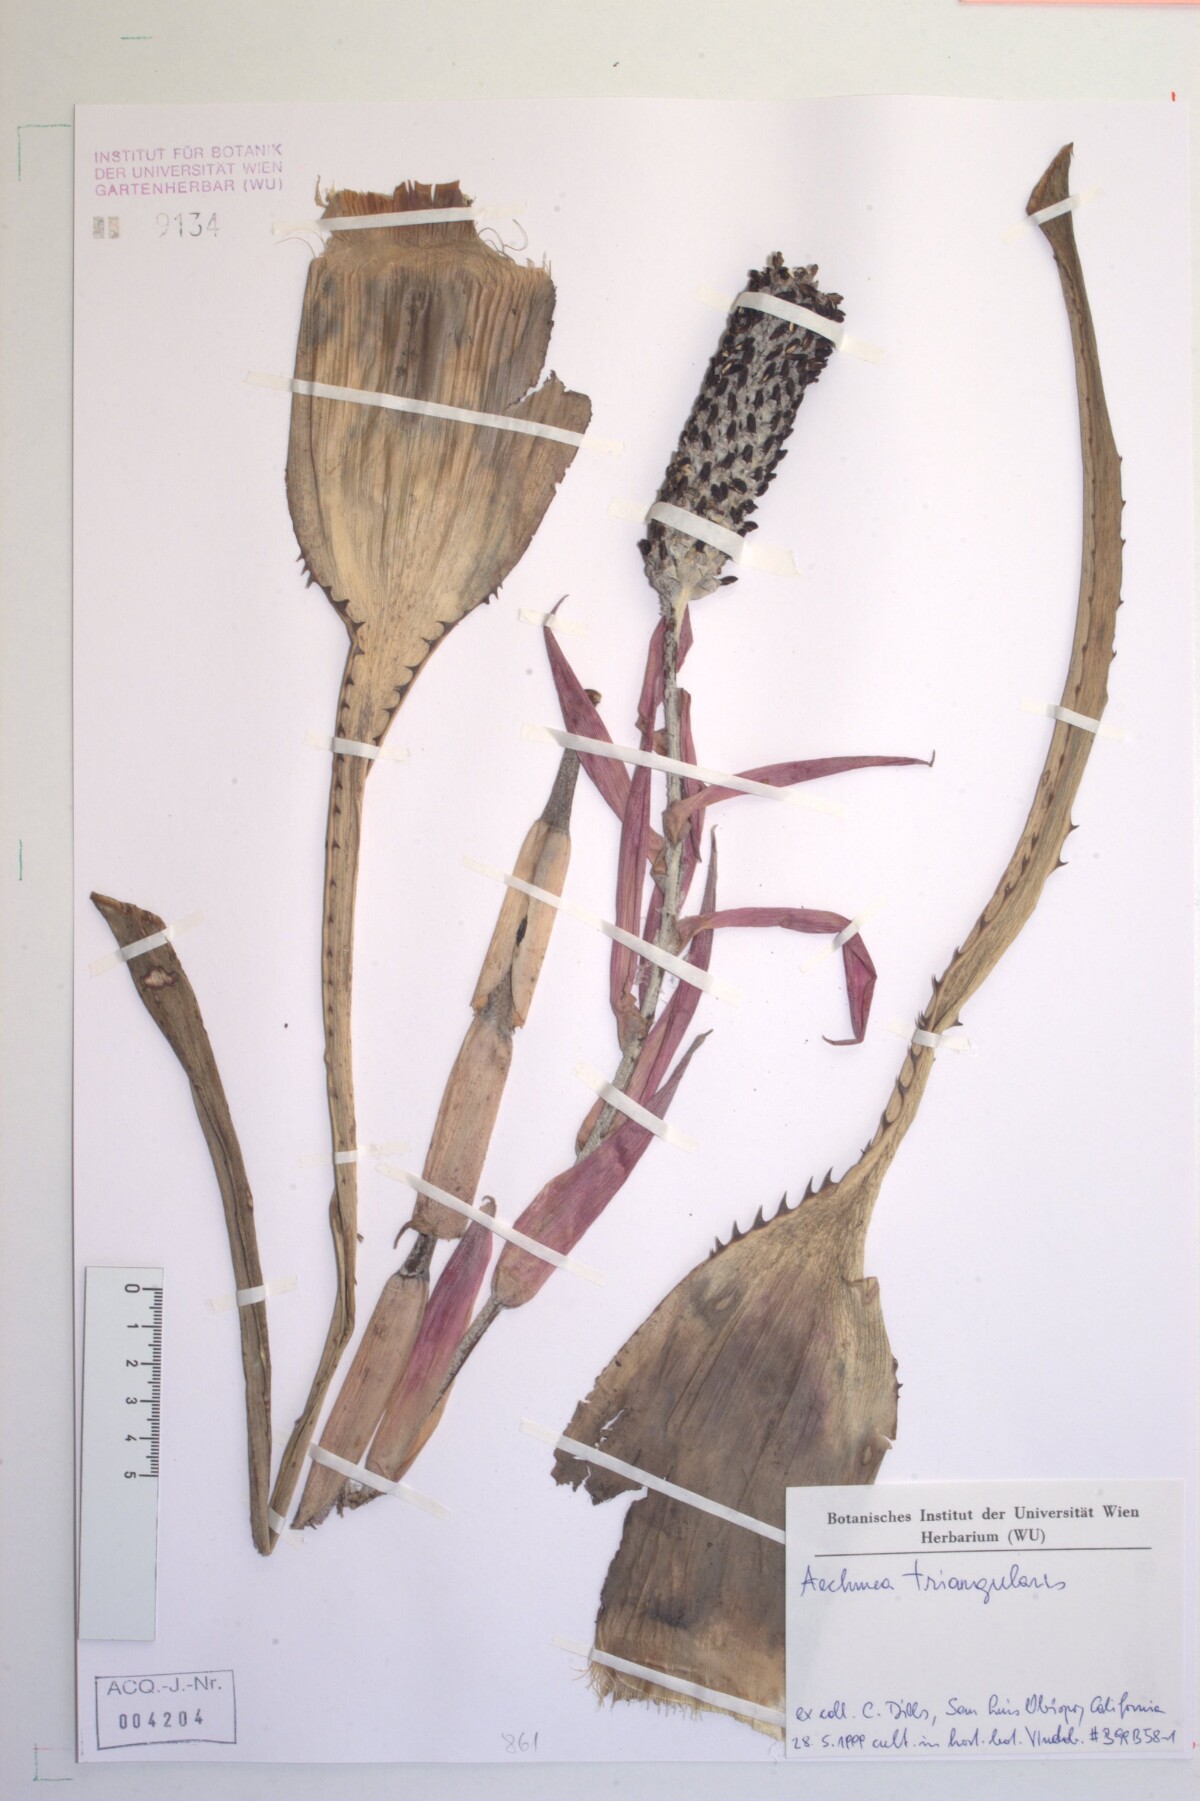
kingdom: Plantae
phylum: Tracheophyta
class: Liliopsida
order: Poales
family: Bromeliaceae
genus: Aechmea
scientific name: Aechmea triangularis
